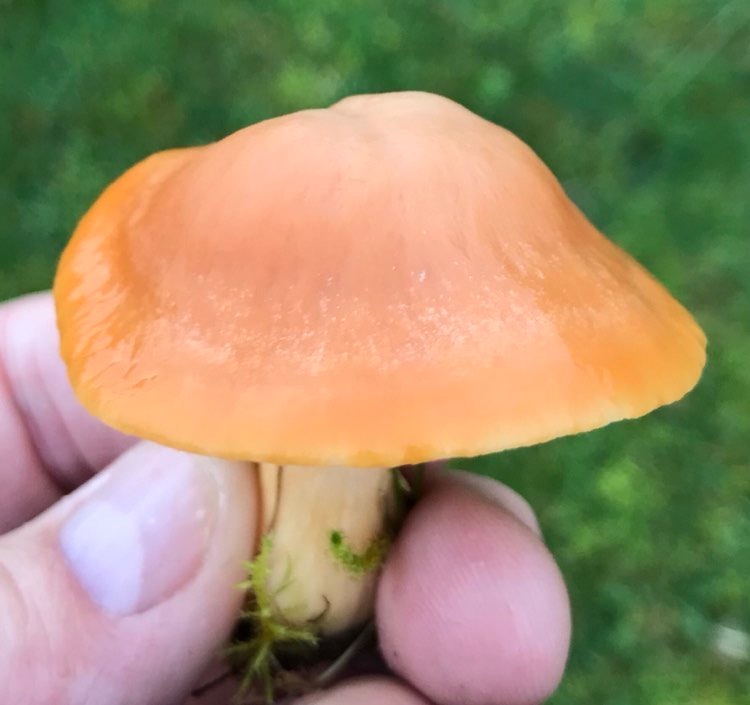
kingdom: Fungi
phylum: Basidiomycota
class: Agaricomycetes
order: Agaricales
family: Hygrophoraceae
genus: Cuphophyllus
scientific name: Cuphophyllus pratensis
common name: eng-vokshat
